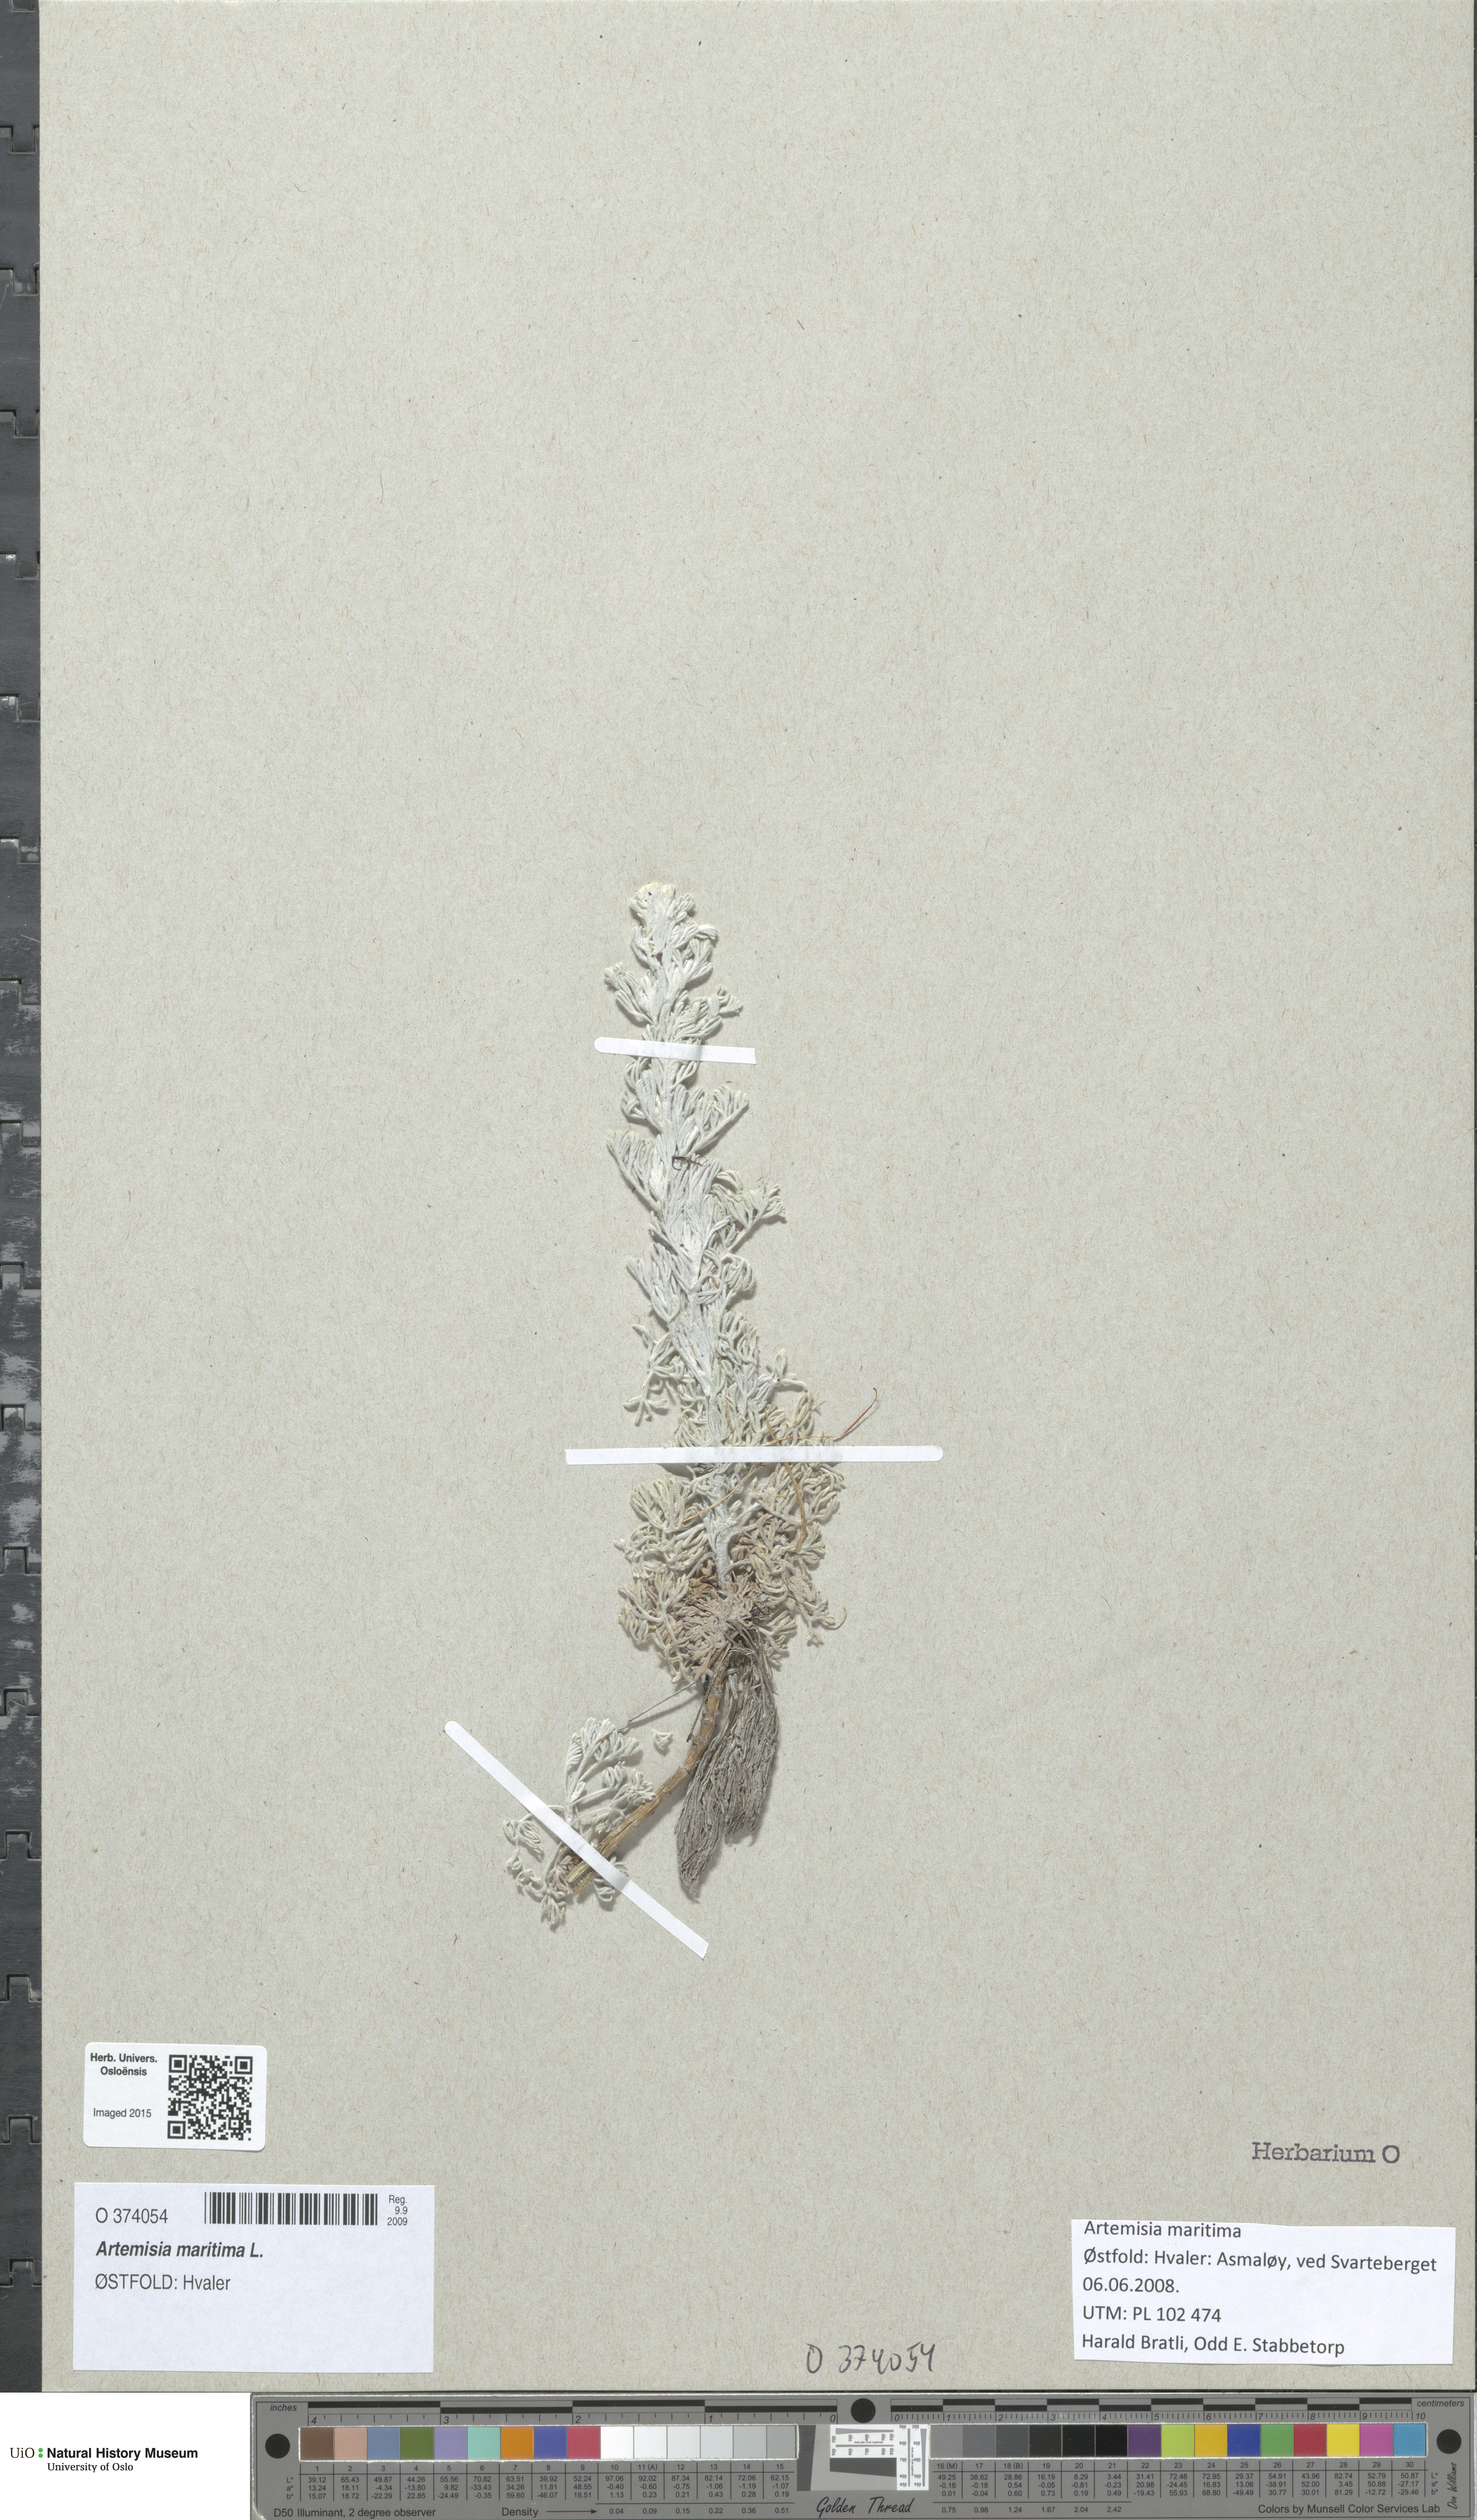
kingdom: Plantae
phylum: Tracheophyta
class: Magnoliopsida
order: Asterales
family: Asteraceae
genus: Artemisia
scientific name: Artemisia maritima
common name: Wormseed
